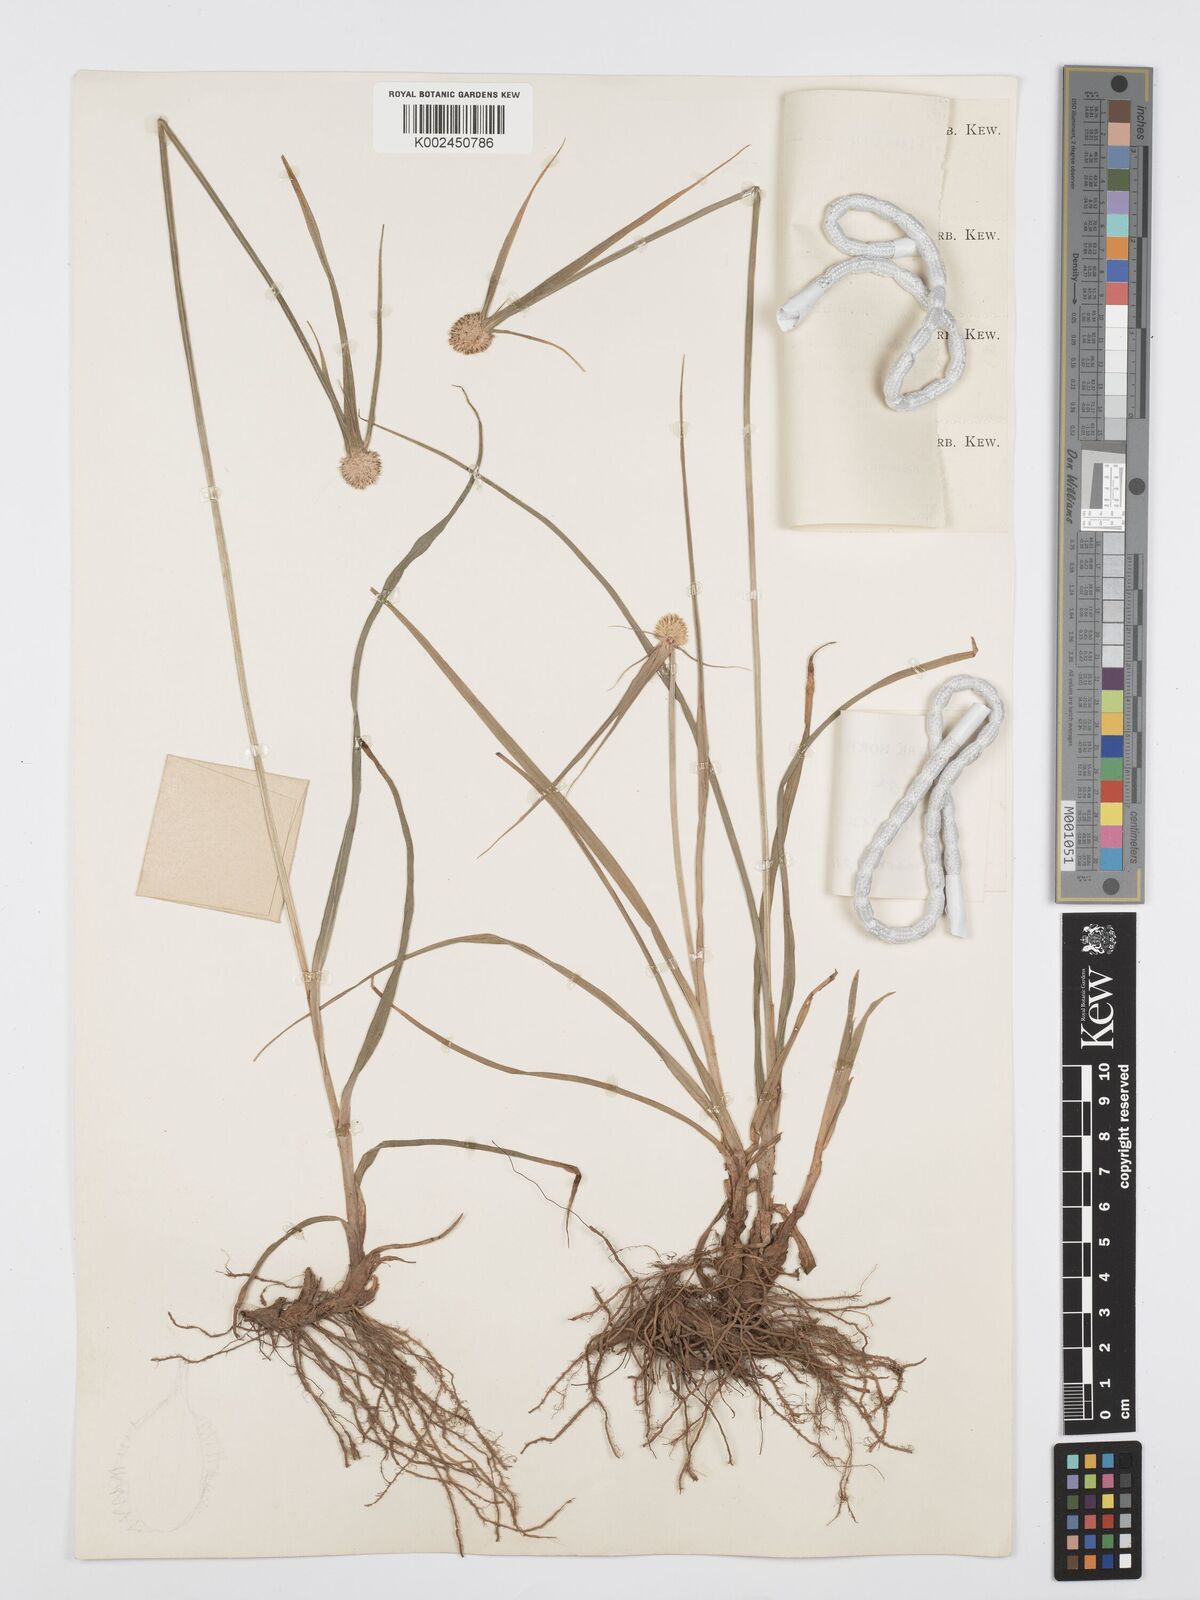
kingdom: Plantae
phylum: Tracheophyta
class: Liliopsida
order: Poales
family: Cyperaceae
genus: Cyperus
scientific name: Cyperus rukwanus
